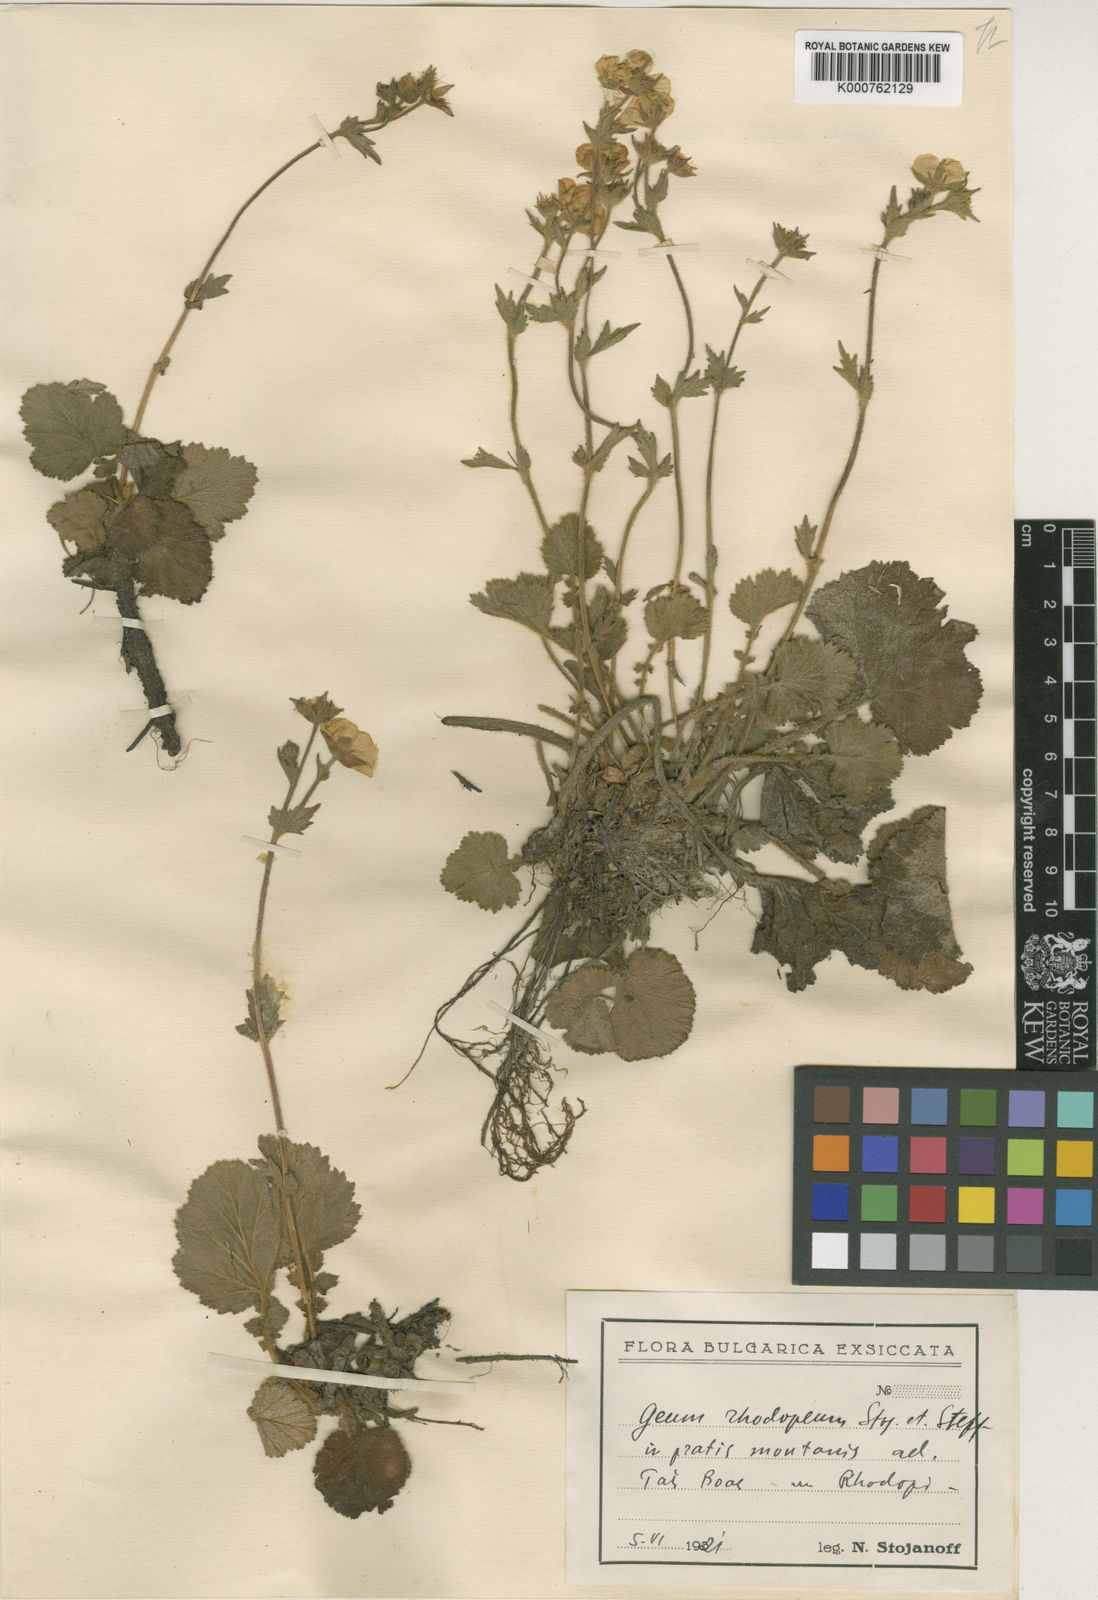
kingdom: Plantae
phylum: Tracheophyta
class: Magnoliopsida
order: Rosales
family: Rosaceae
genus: Geum
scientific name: Geum rhodopeum
